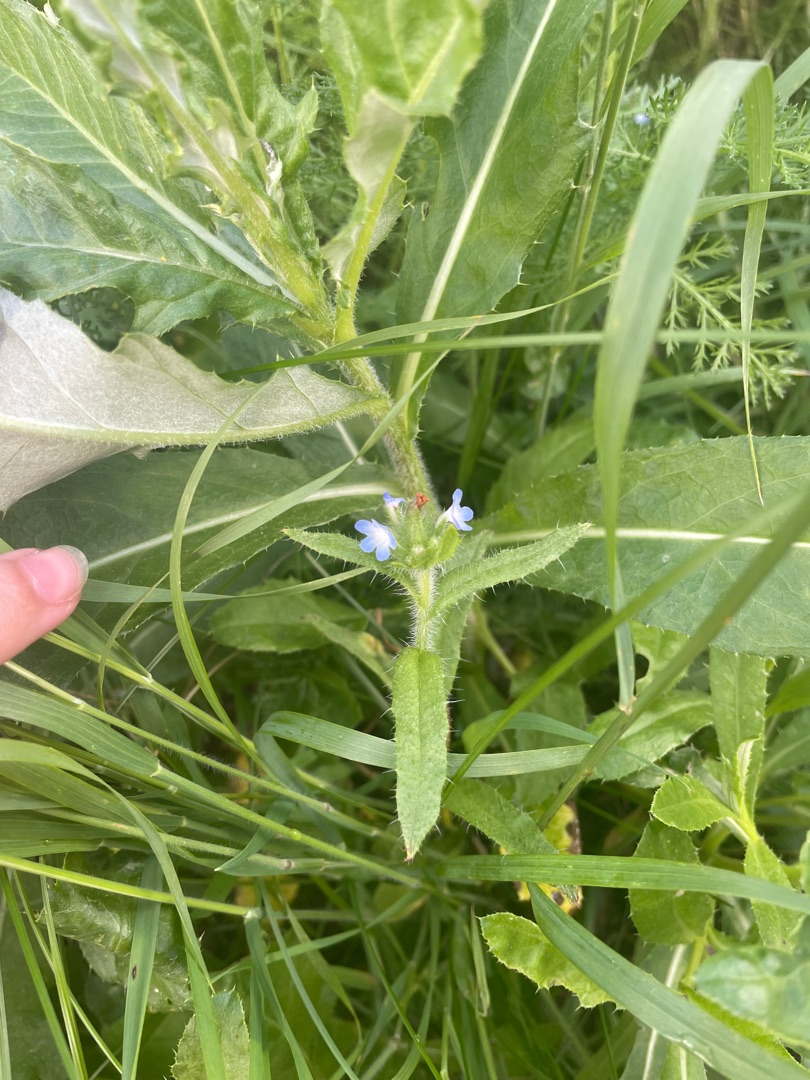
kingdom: Plantae
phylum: Tracheophyta
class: Magnoliopsida
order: Boraginales
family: Boraginaceae
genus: Lycopsis
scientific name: Lycopsis arvensis
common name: Krumhals
